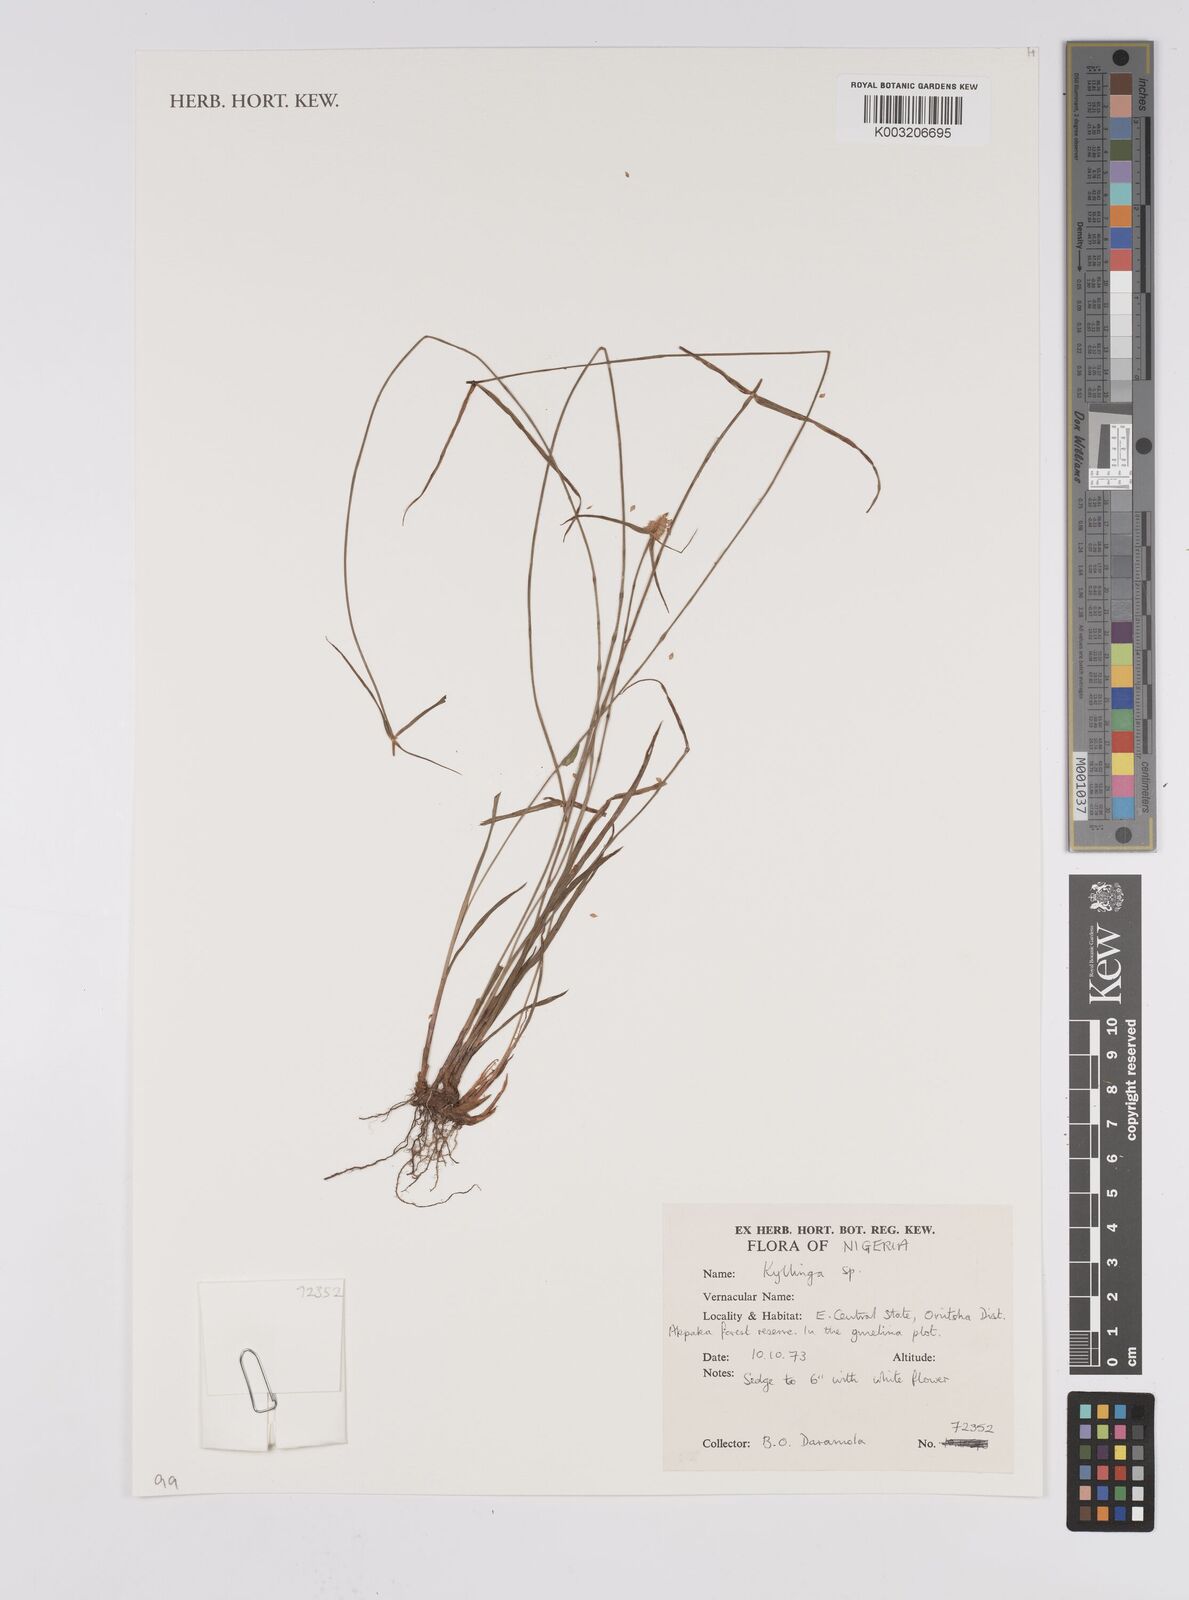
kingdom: Plantae
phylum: Tracheophyta
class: Liliopsida
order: Poales
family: Cyperaceae
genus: Cyperus
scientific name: Cyperus
